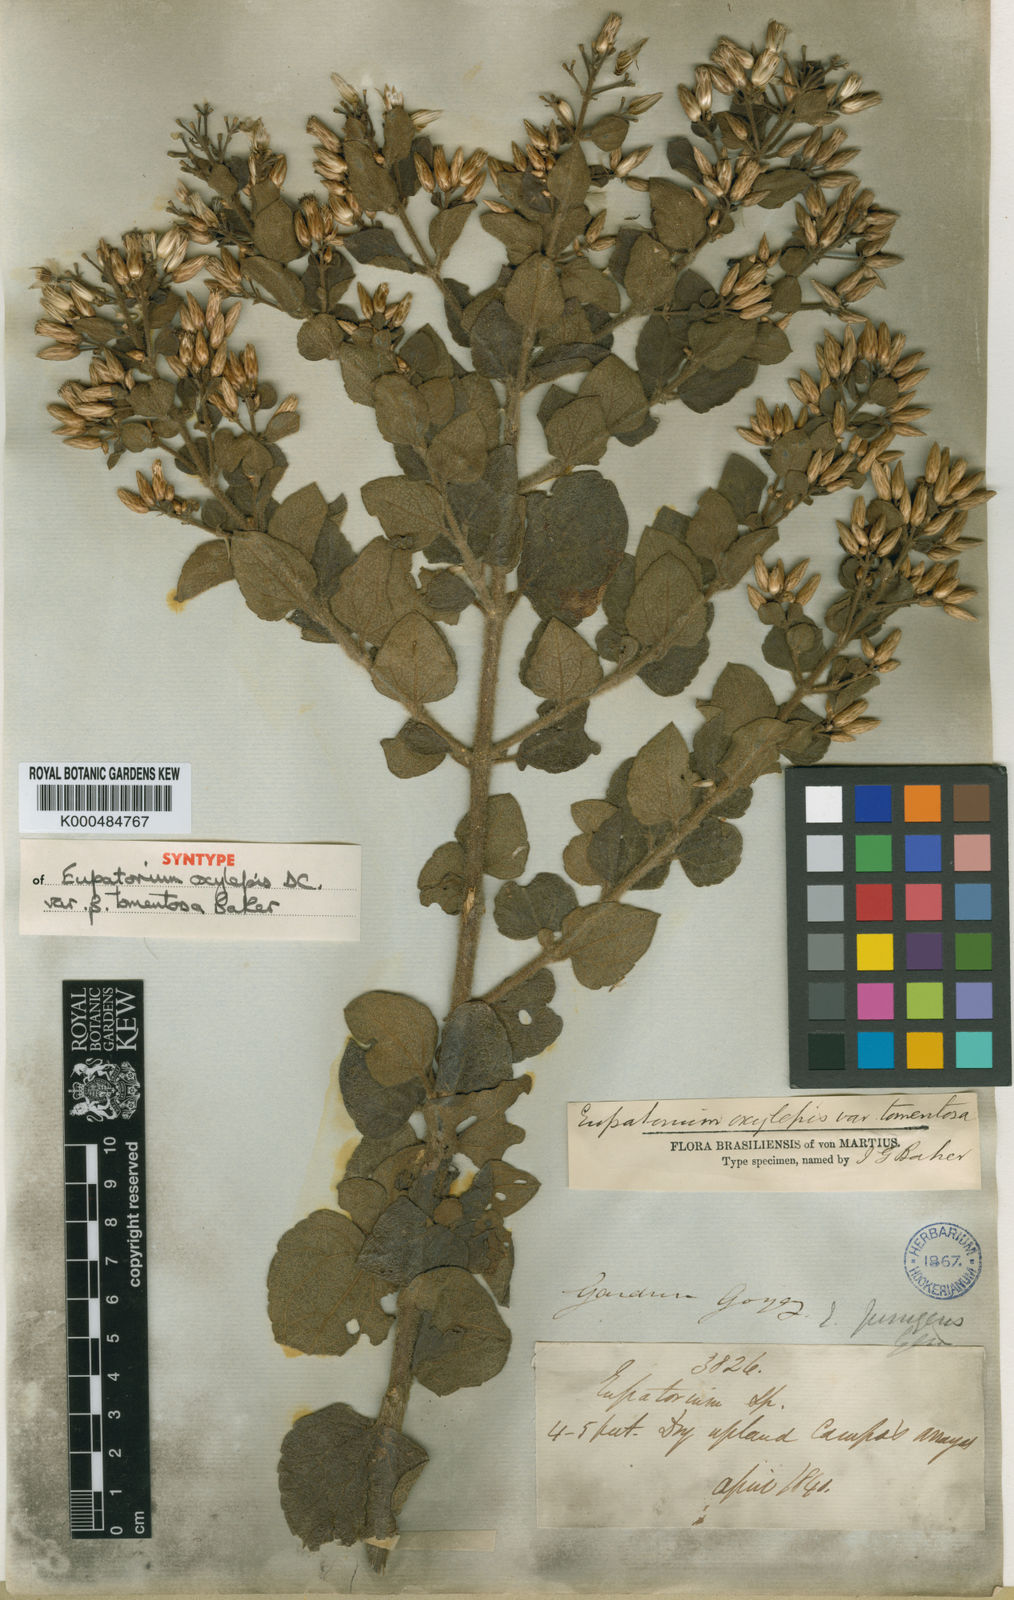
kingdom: Plantae
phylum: Tracheophyta
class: Magnoliopsida
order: Asterales
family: Asteraceae
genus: Chromolaena
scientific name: Chromolaena oxylepis
